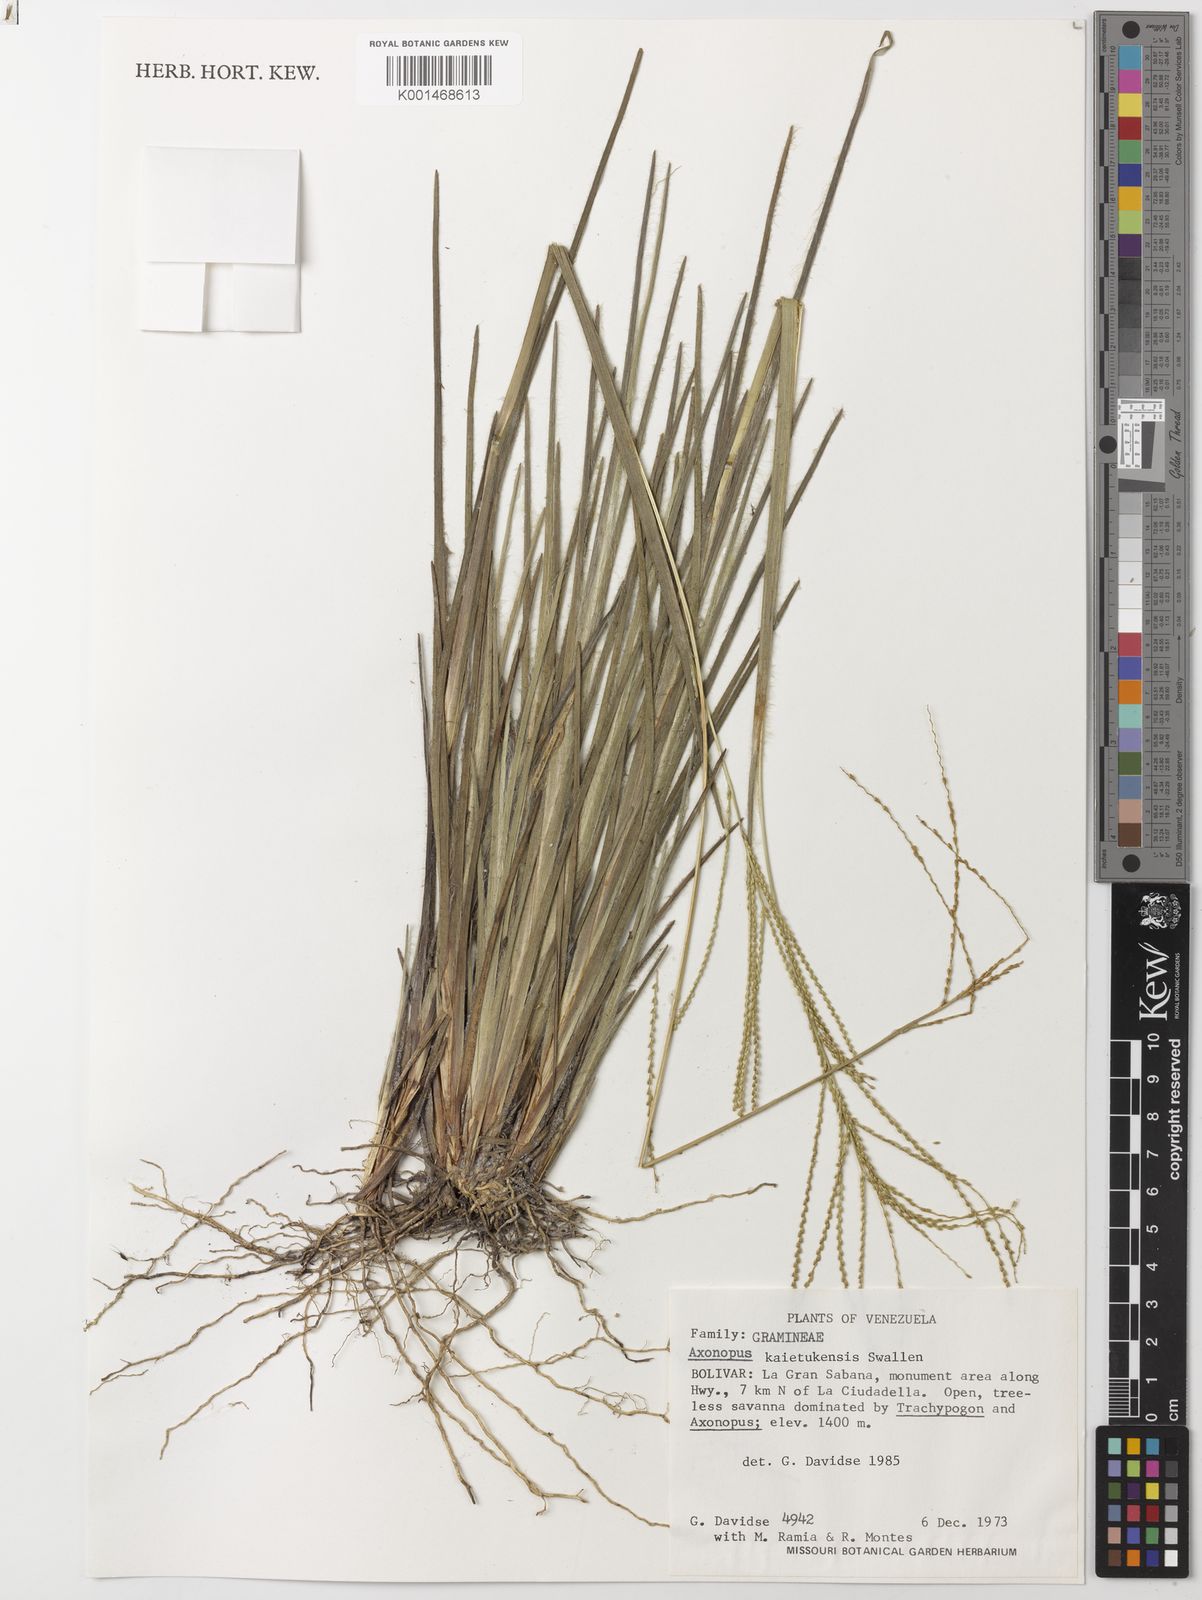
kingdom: Plantae
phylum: Tracheophyta
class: Liliopsida
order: Poales
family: Poaceae
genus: Axonopus
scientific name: Axonopus flabelliformis
